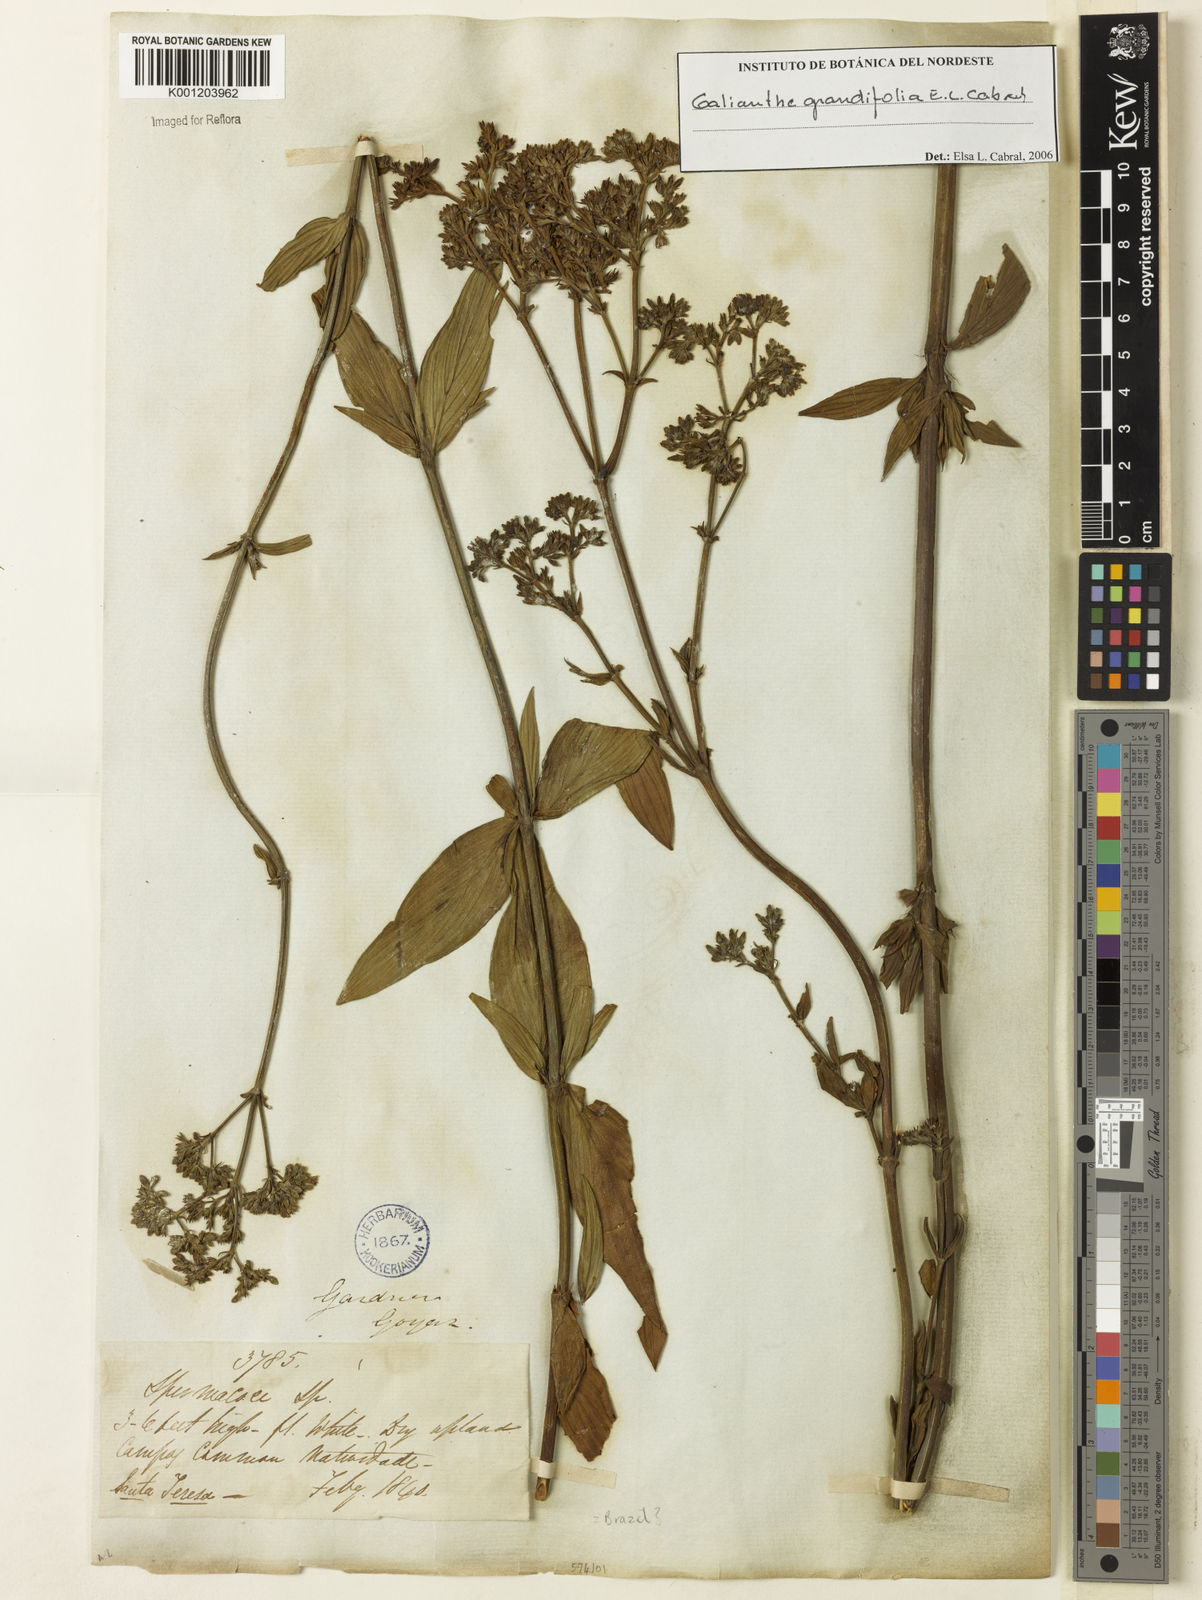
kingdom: Plantae
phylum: Tracheophyta
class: Magnoliopsida
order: Gentianales
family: Rubiaceae
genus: Galianthe
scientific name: Galianthe grandifolia
